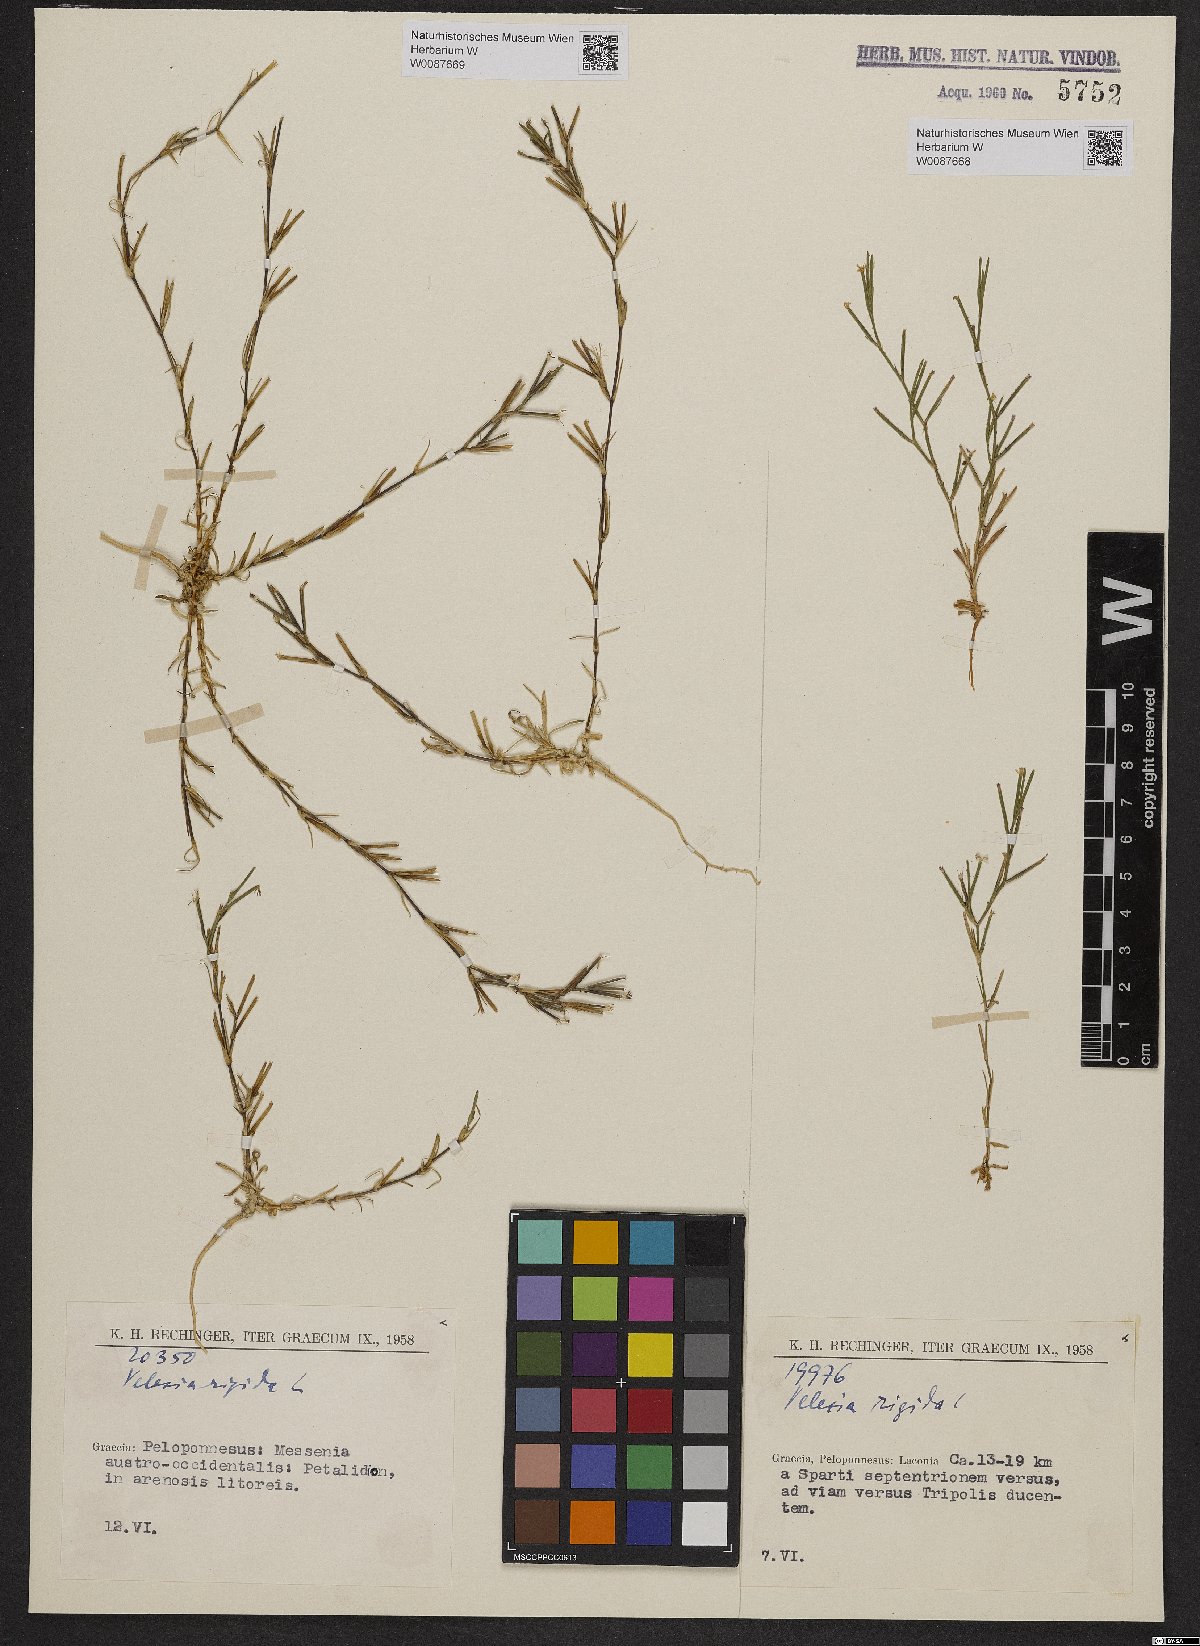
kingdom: Plantae
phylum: Tracheophyta
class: Magnoliopsida
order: Caryophyllales
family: Caryophyllaceae
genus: Dianthus
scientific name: Dianthus nudiflorus
